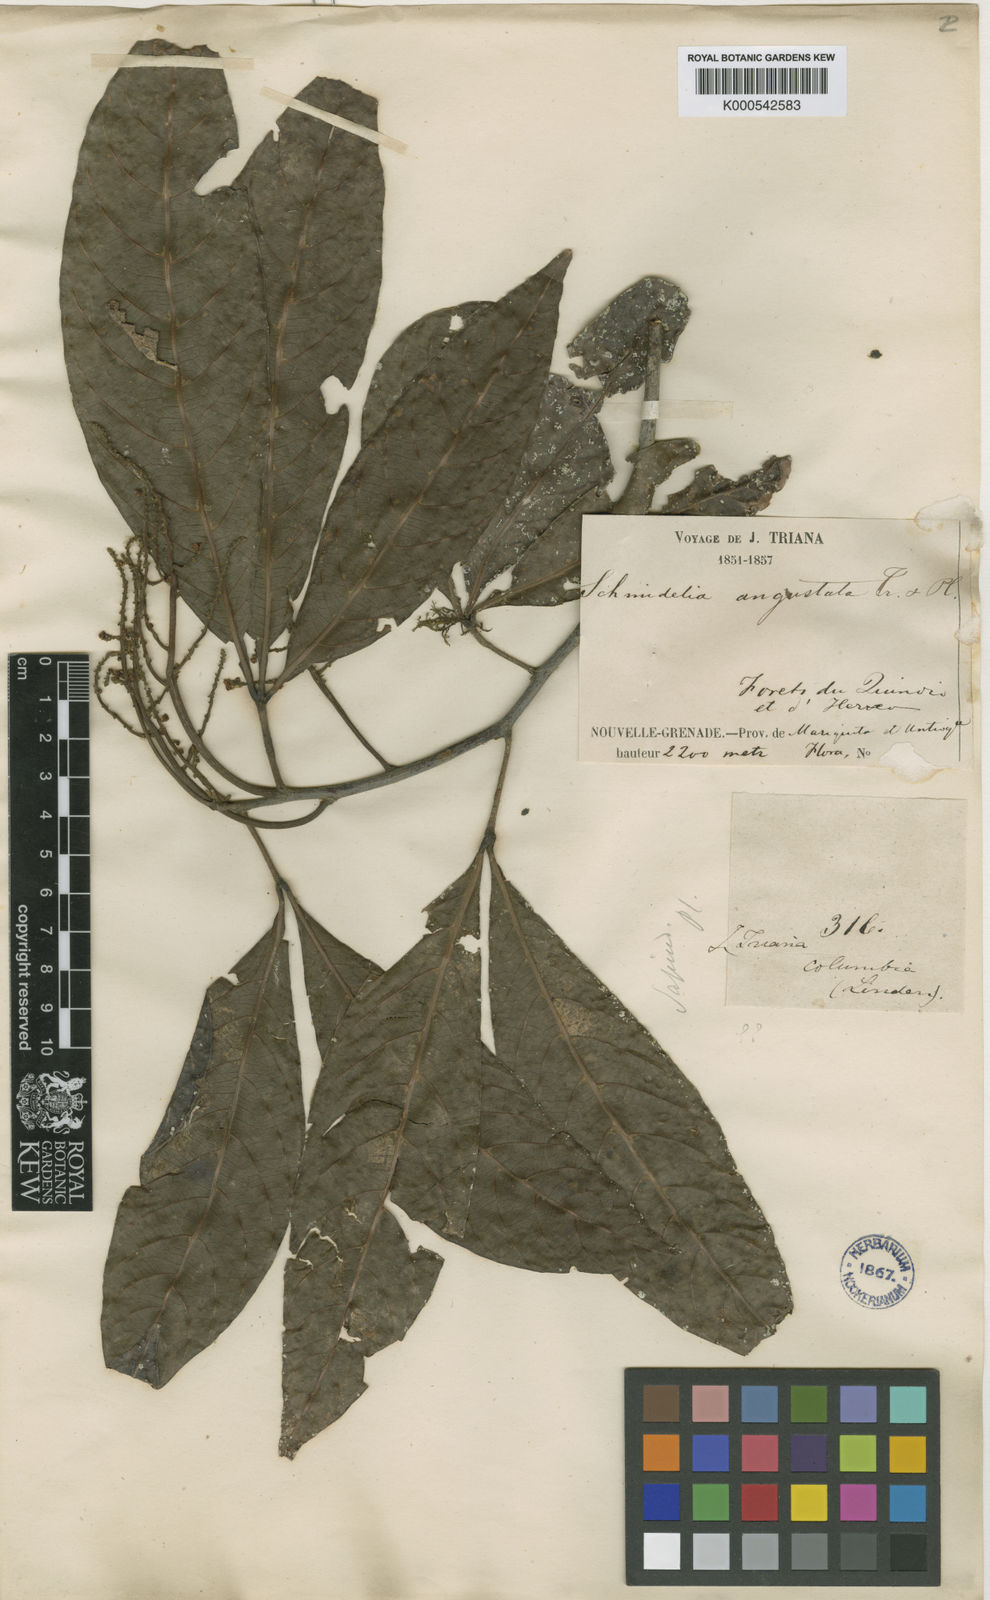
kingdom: Plantae
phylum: Tracheophyta
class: Magnoliopsida
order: Sapindales
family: Sapindaceae
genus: Allophylus
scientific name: Allophylus angustatus
